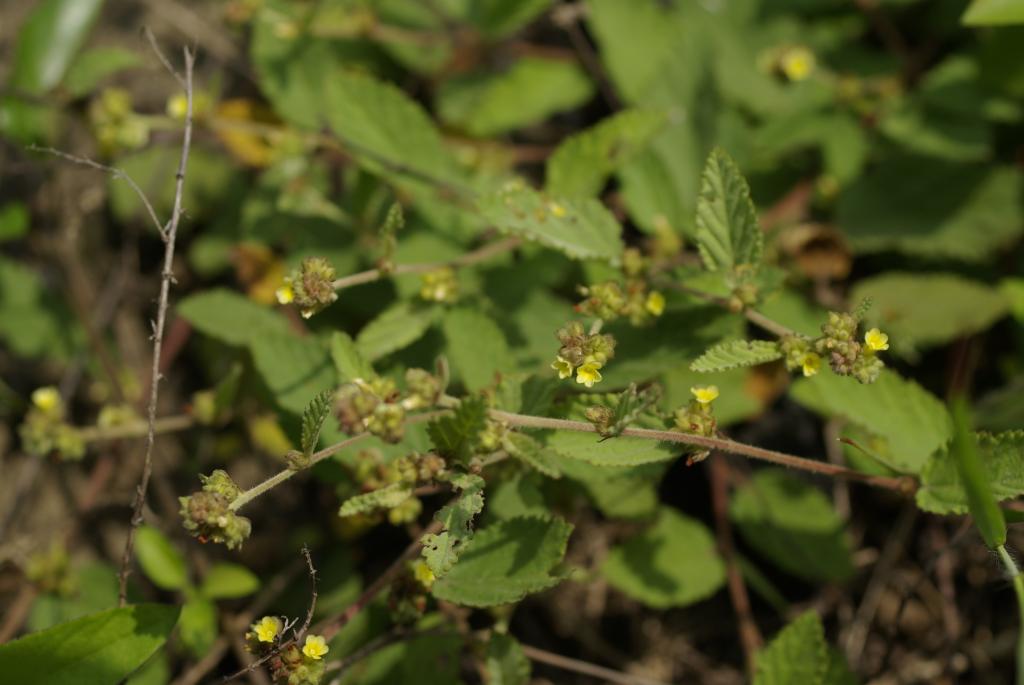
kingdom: Plantae
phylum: Tracheophyta
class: Magnoliopsida
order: Malvales
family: Malvaceae
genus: Waltheria
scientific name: Waltheria indica
